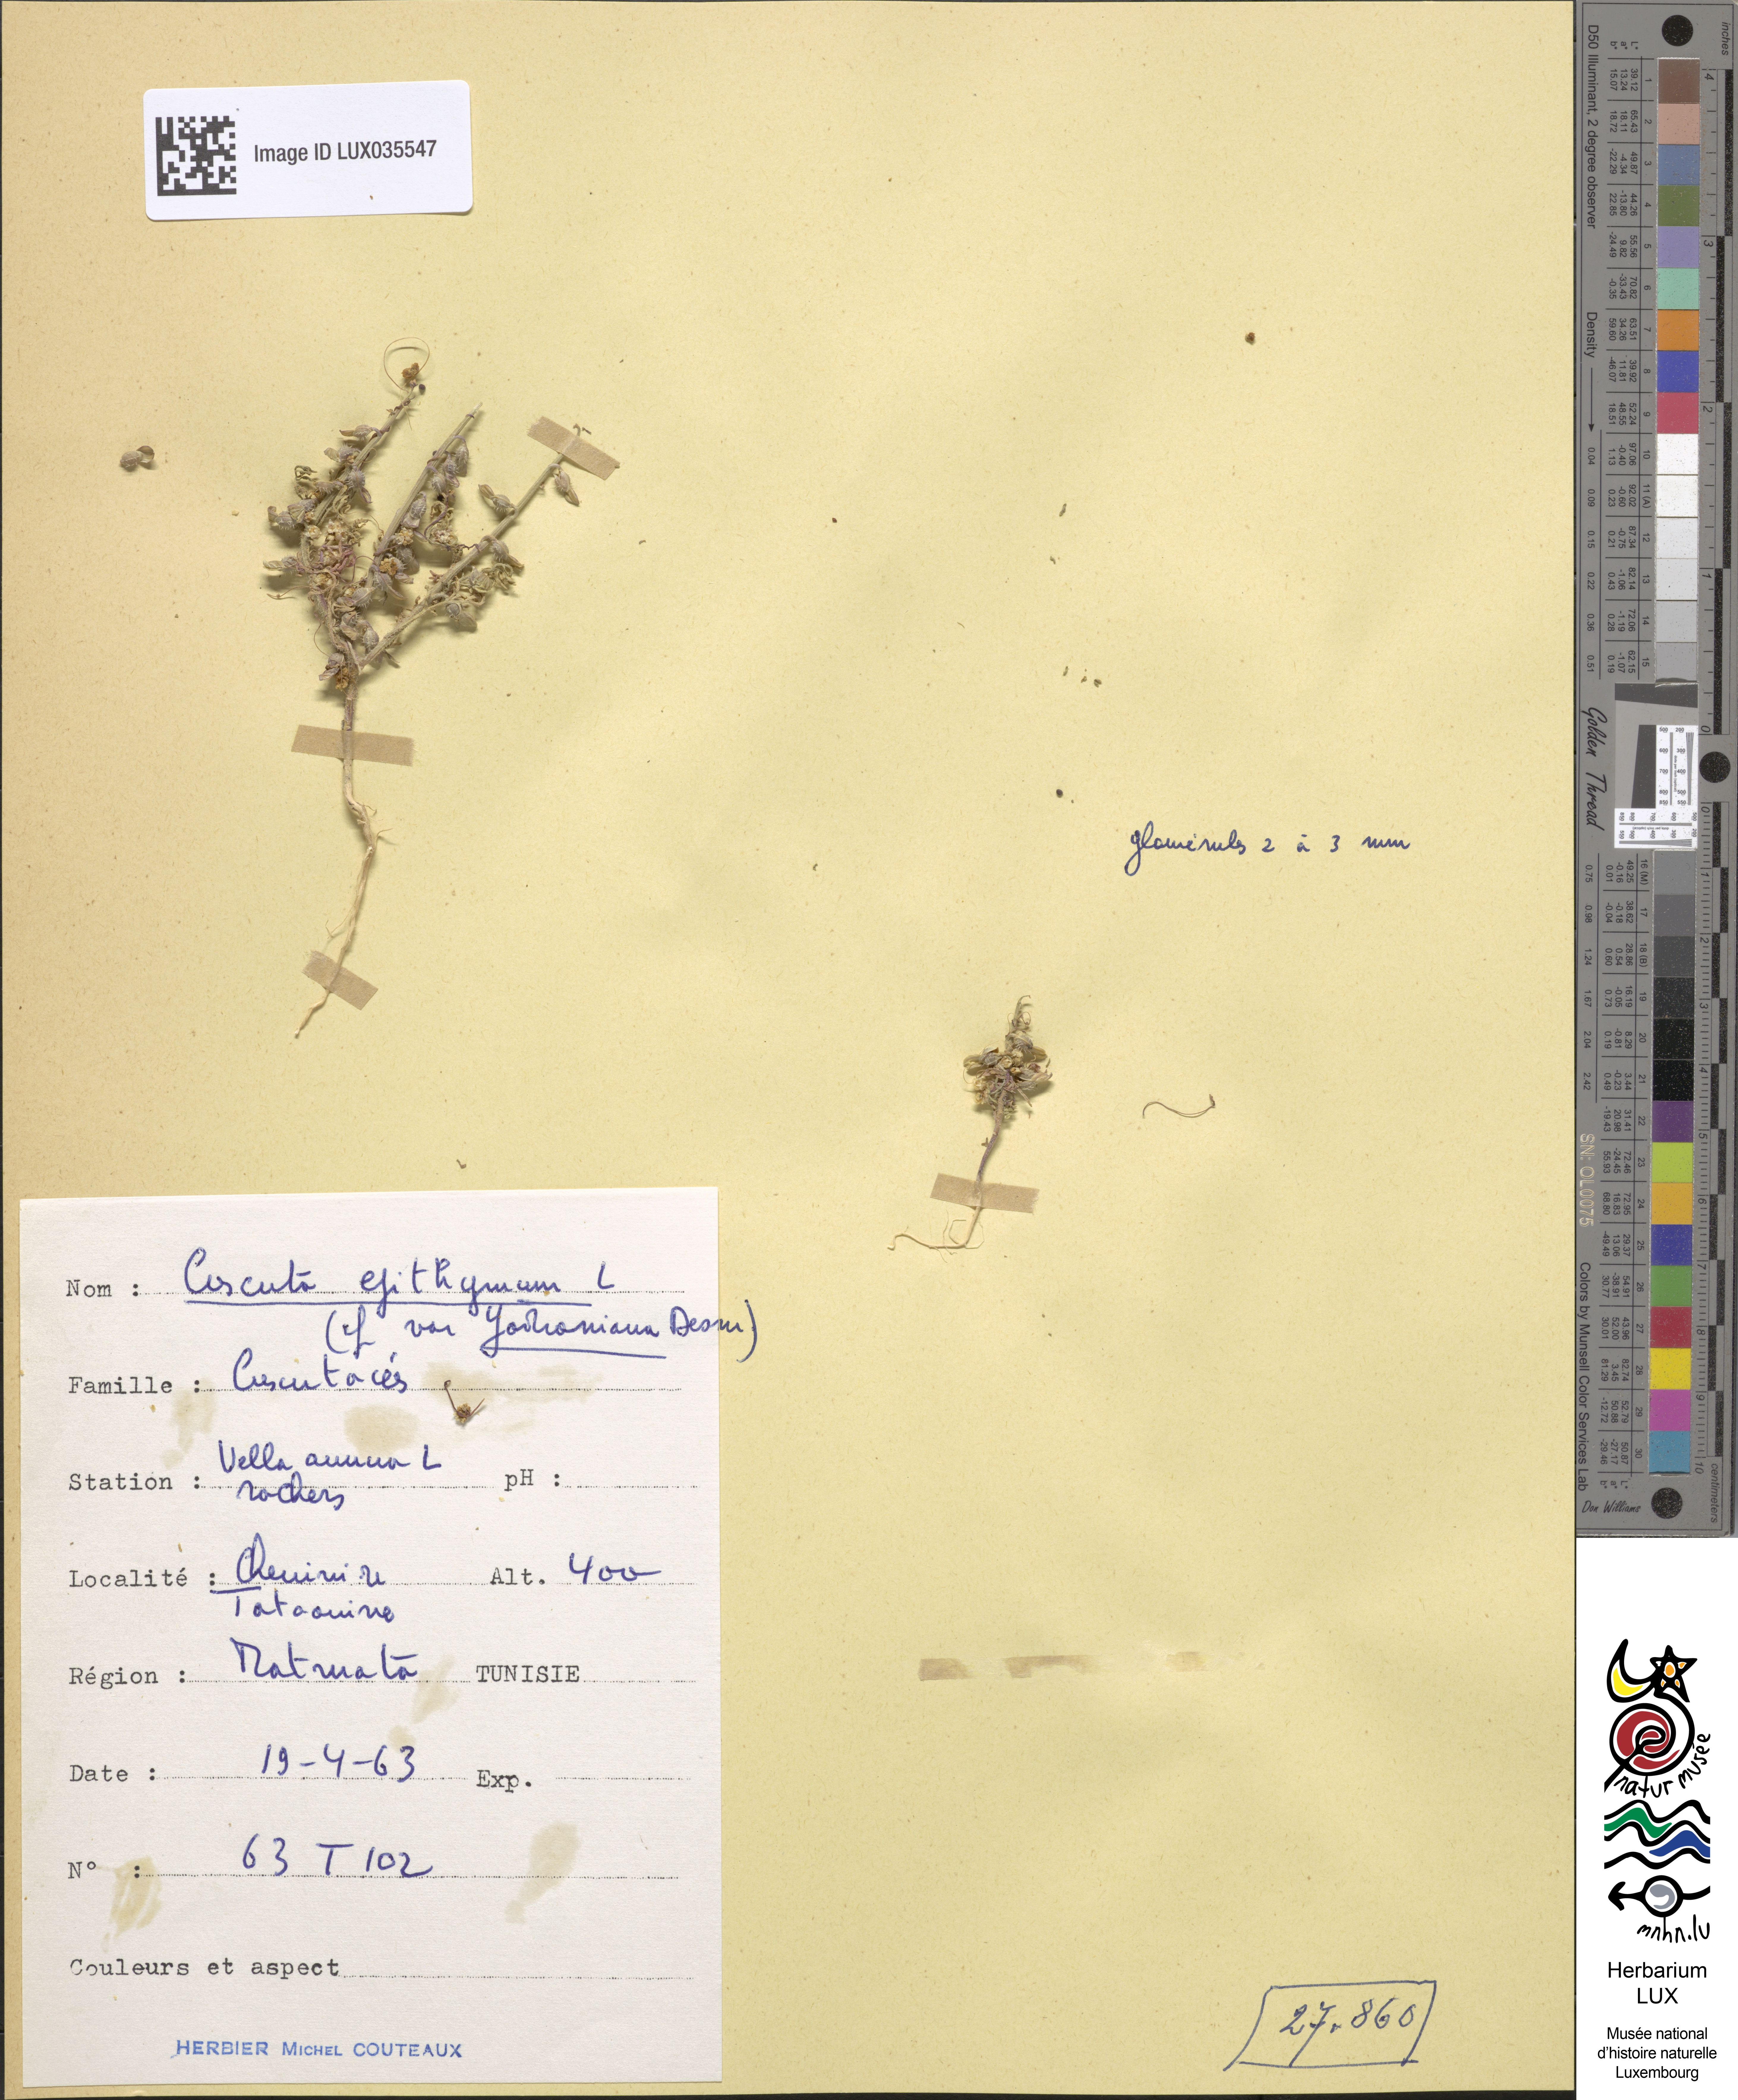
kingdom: Plantae
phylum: Tracheophyta
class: Magnoliopsida
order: Solanales
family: Convolvulaceae
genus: Cuscuta
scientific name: Cuscuta epithymum
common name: Clover dodder
